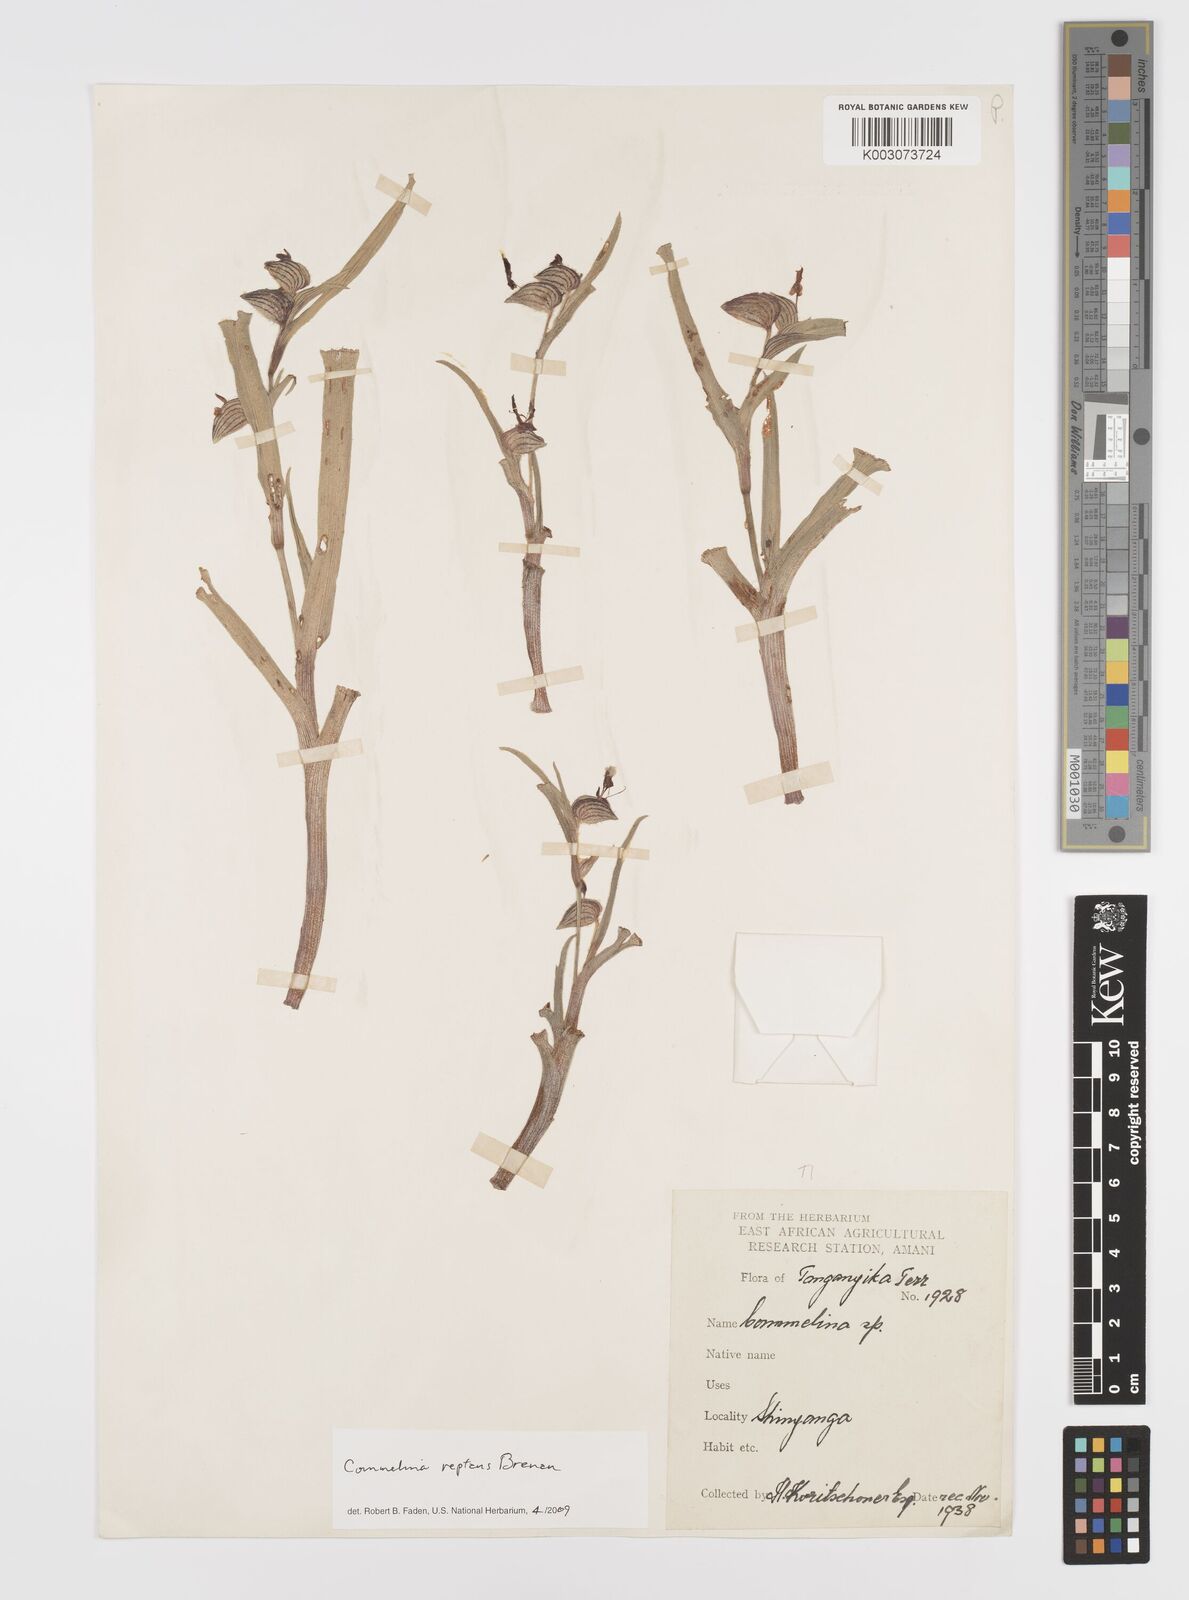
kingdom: Plantae
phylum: Tracheophyta
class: Liliopsida
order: Commelinales
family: Commelinaceae
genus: Commelina
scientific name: Commelina reptans
